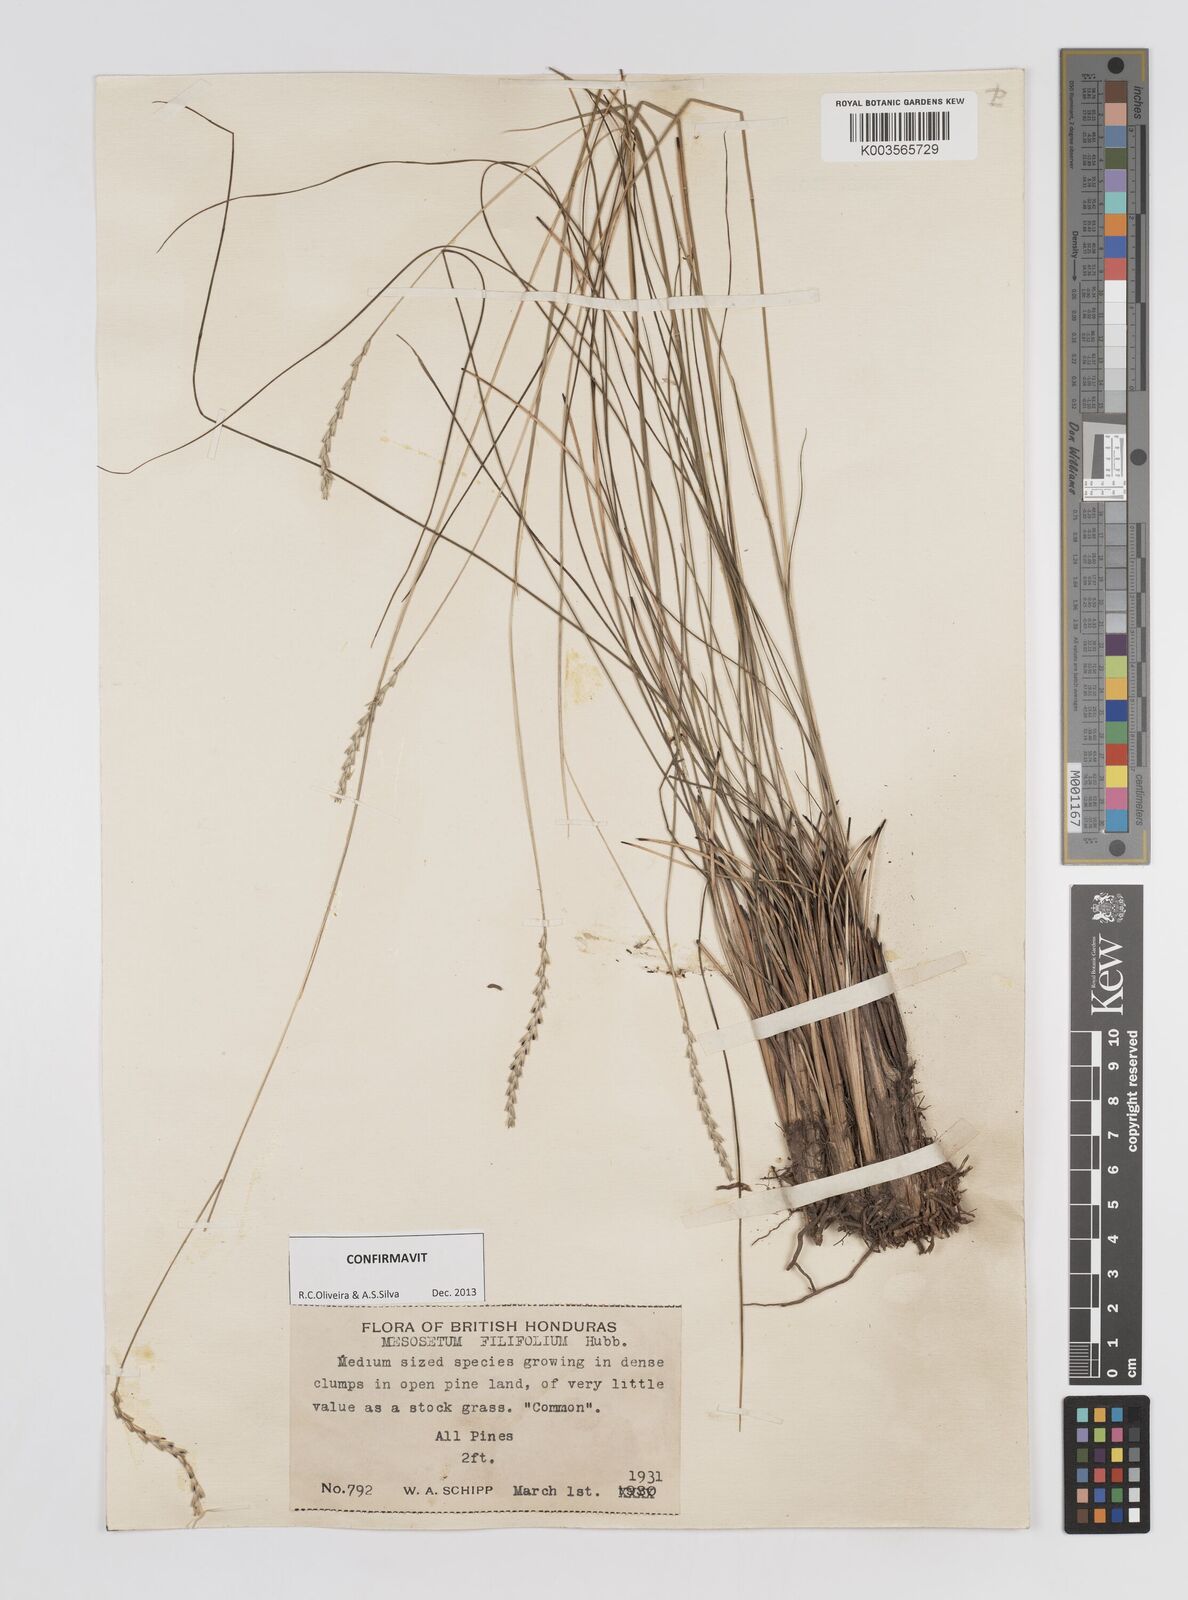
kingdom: Plantae
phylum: Tracheophyta
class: Liliopsida
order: Poales
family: Poaceae
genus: Mesosetum
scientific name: Mesosetum filifolium
